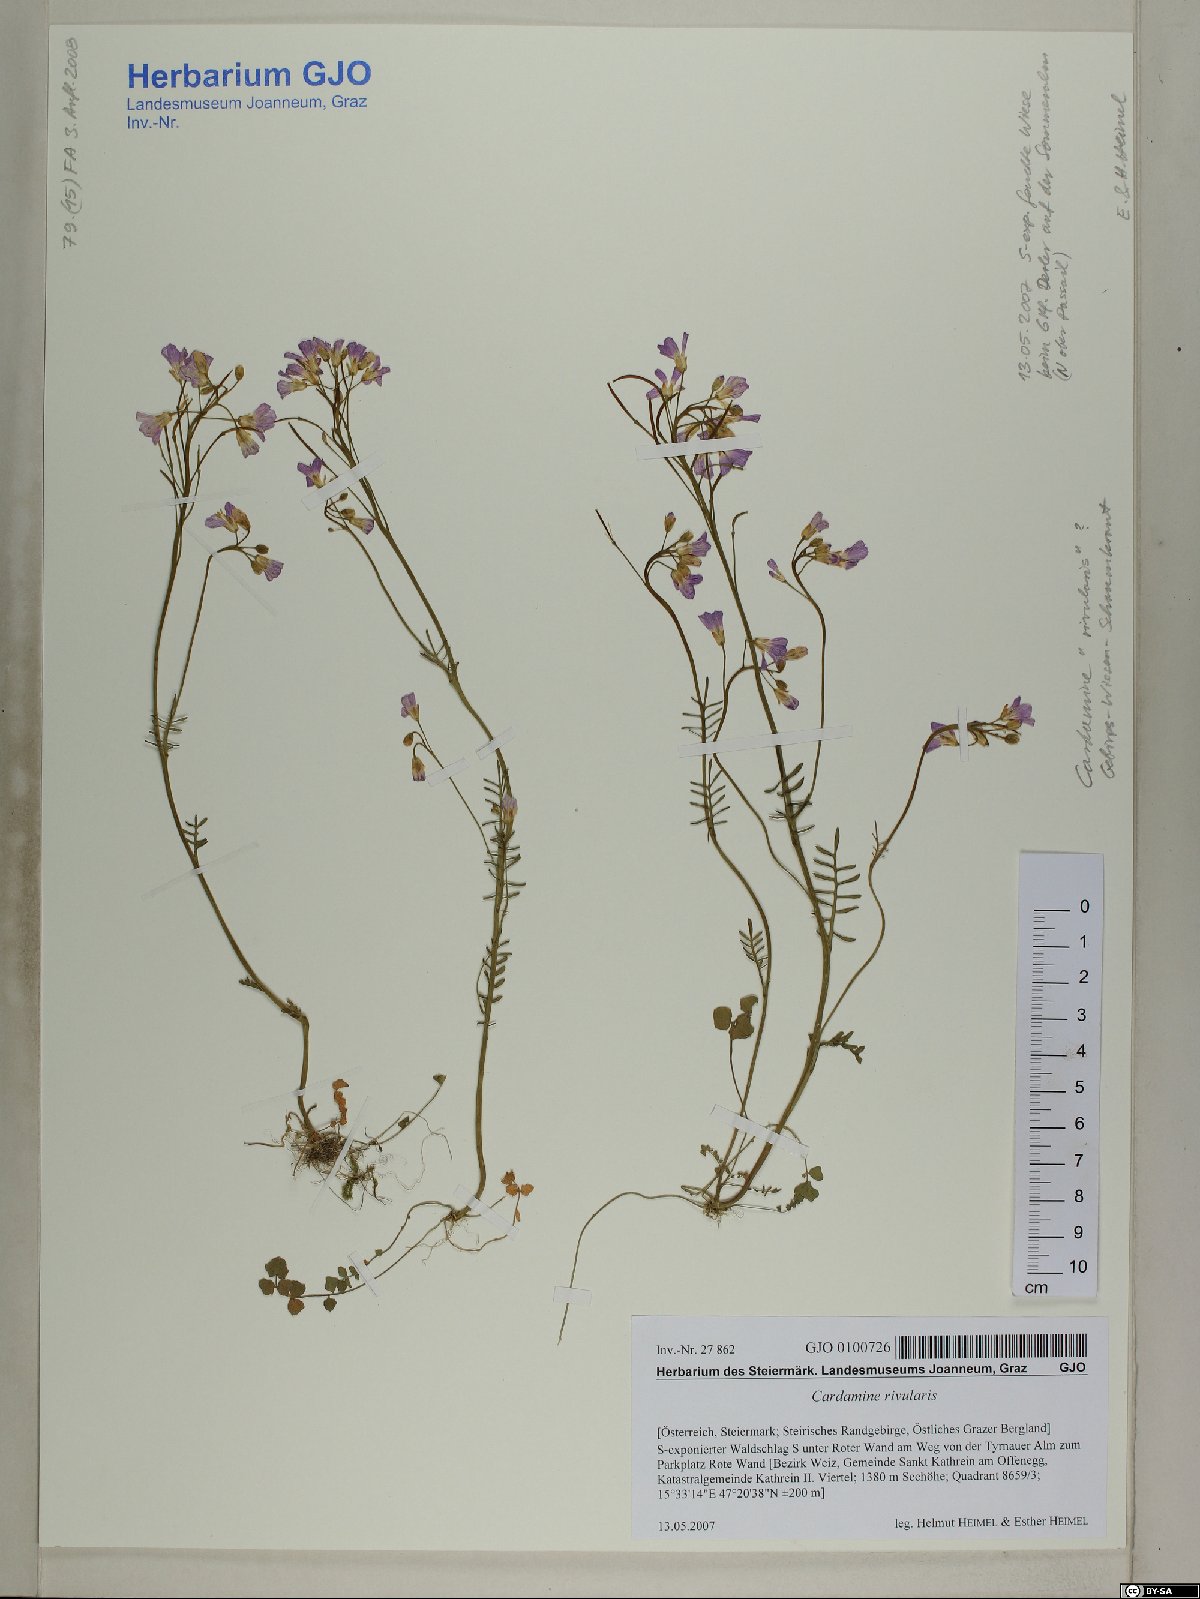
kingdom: Plantae
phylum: Tracheophyta
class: Magnoliopsida
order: Brassicales
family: Brassicaceae
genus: Cardamine
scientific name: Cardamine pratensis
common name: Cuckoo flower
